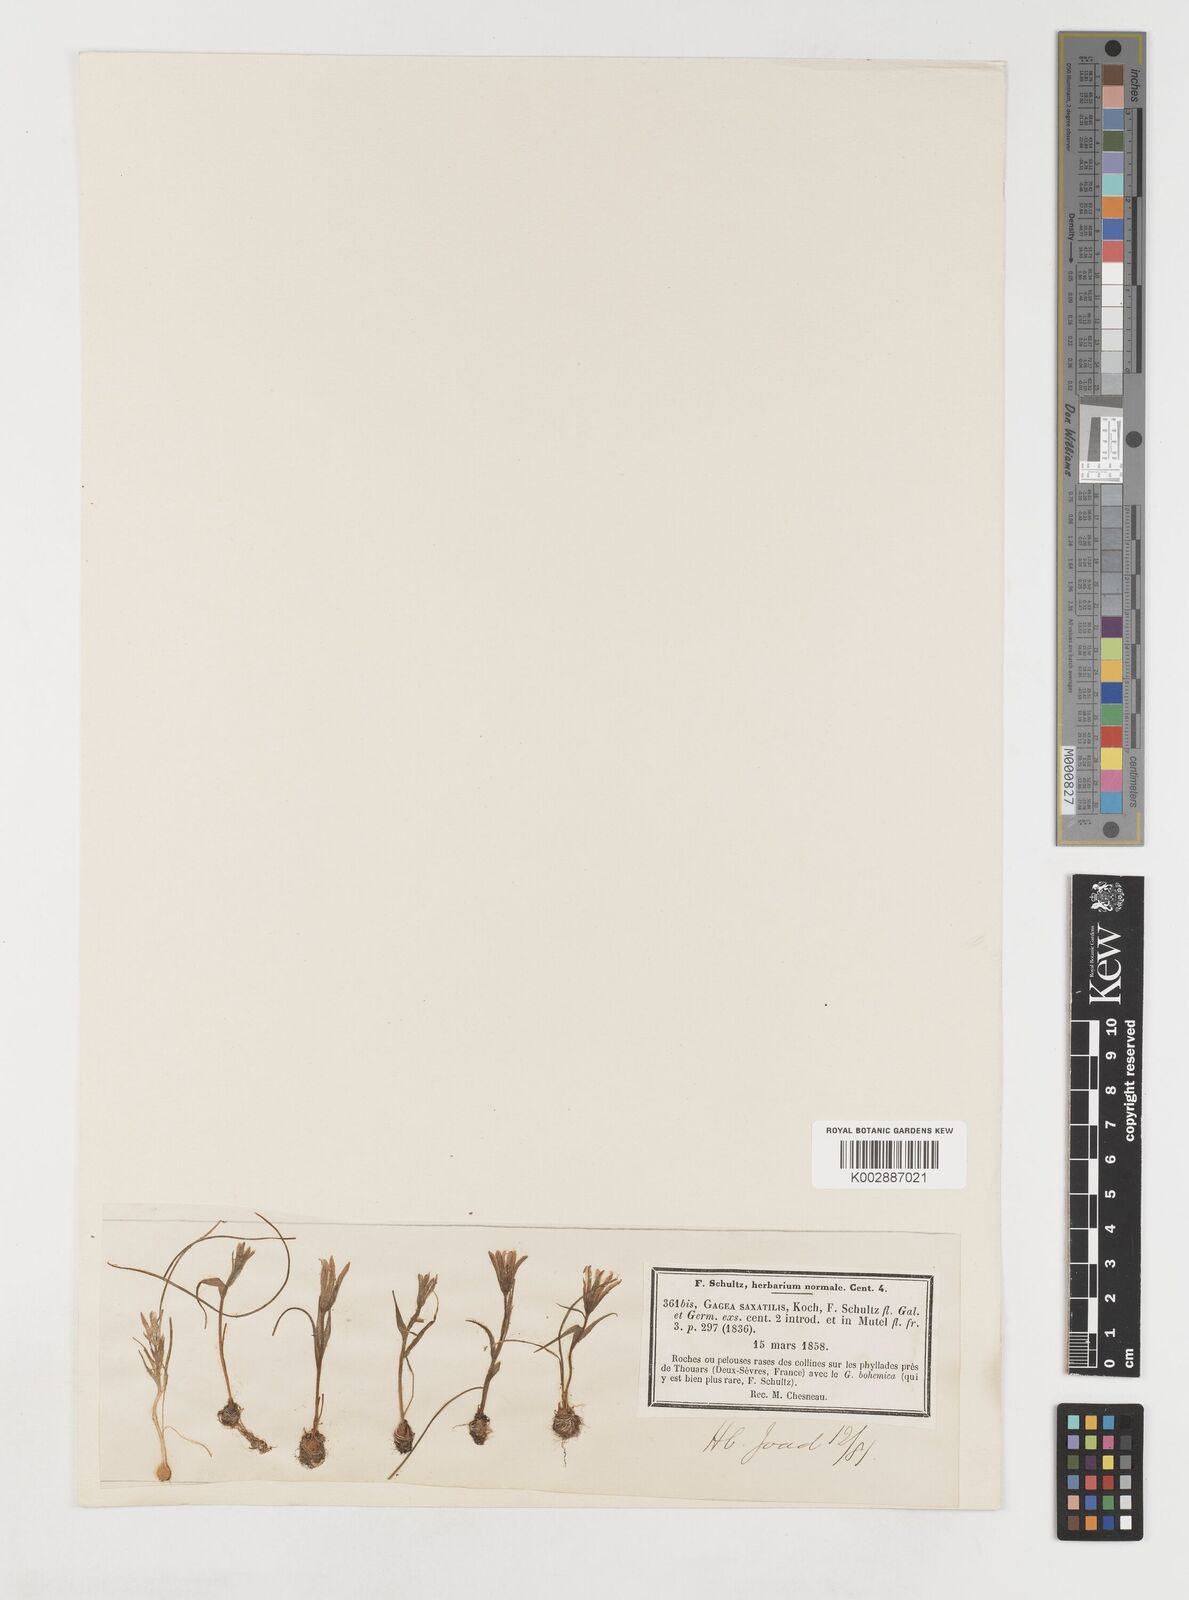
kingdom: Plantae
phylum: Tracheophyta
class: Liliopsida
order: Liliales
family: Liliaceae
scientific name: Liliaceae
